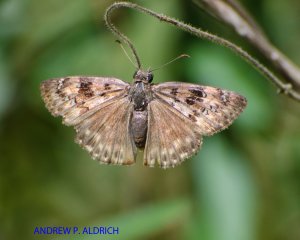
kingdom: Animalia
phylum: Arthropoda
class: Insecta
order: Lepidoptera
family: Hesperiidae
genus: Gesta
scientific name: Gesta
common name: Horace's Duskywing
